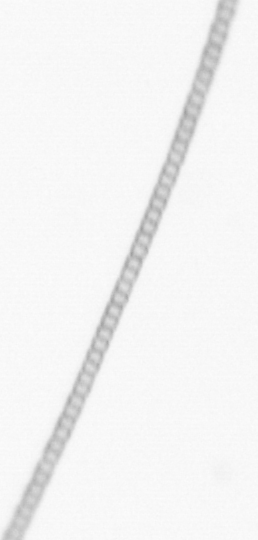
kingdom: Chromista
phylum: Ochrophyta
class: Bacillariophyceae
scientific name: Bacillariophyceae
